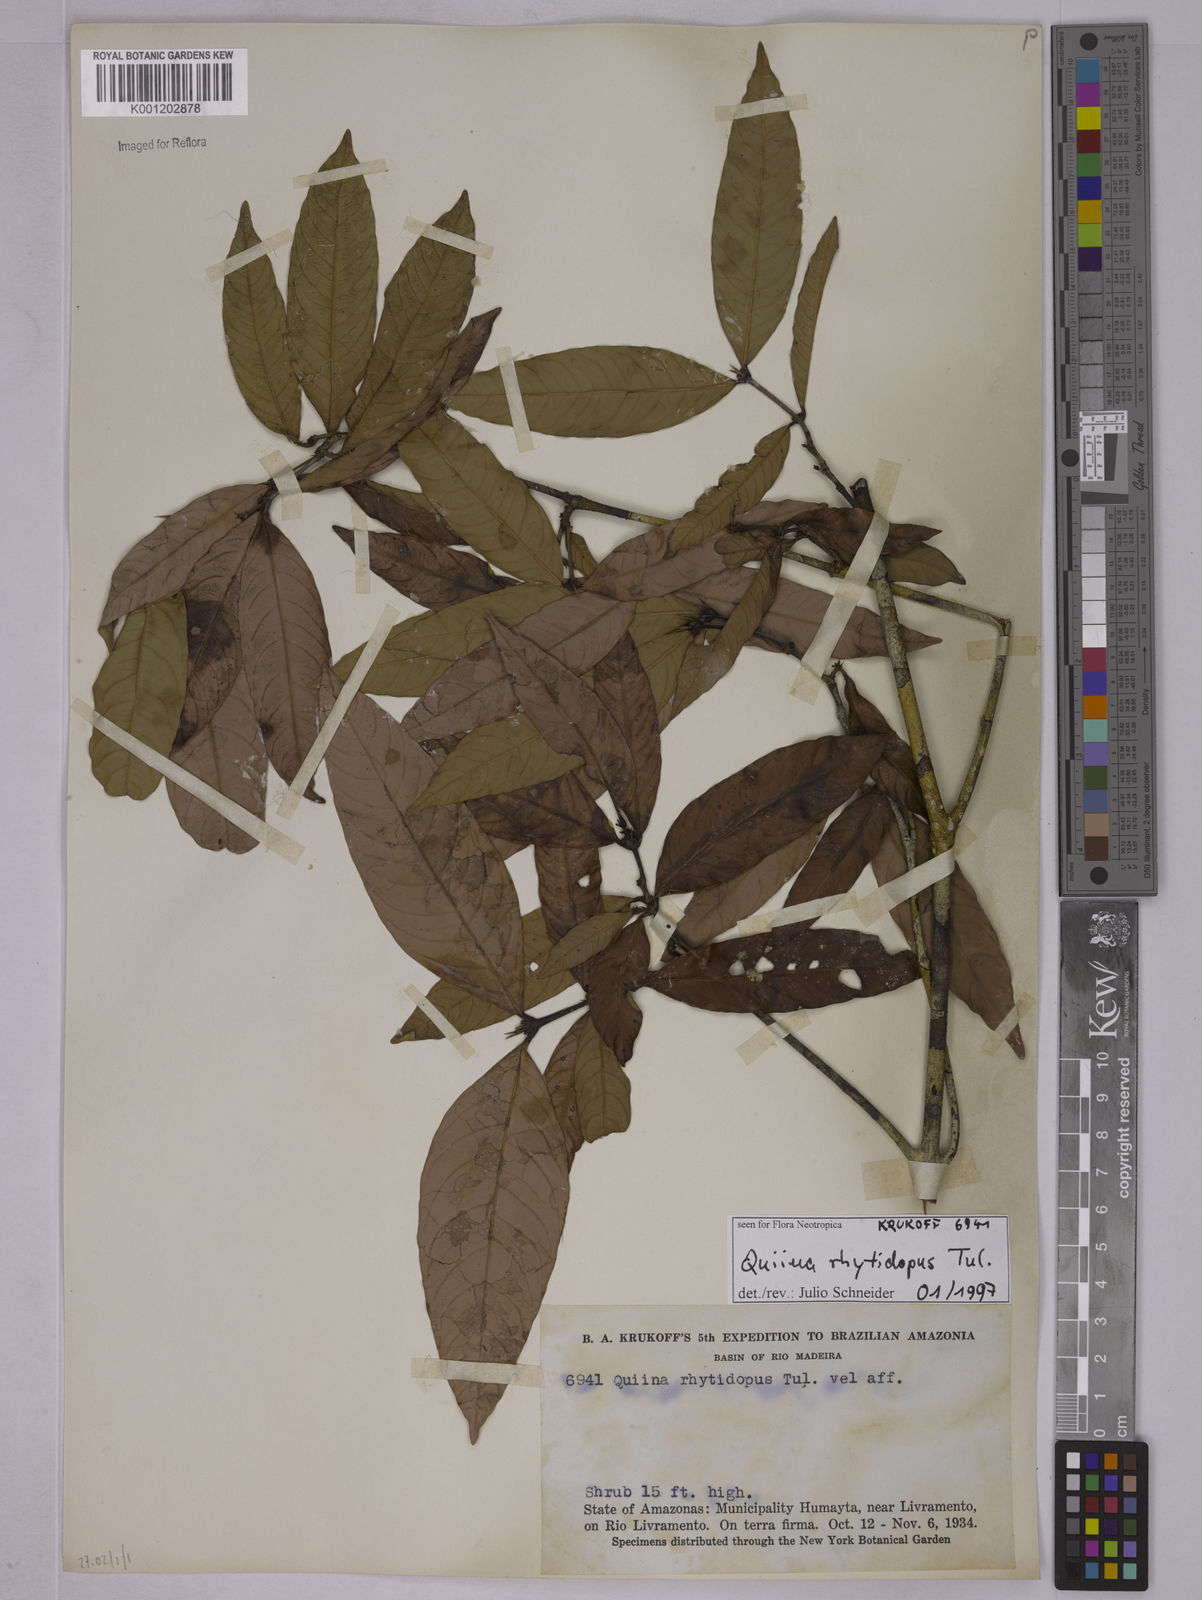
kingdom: Plantae
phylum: Tracheophyta
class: Magnoliopsida
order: Malpighiales
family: Quiinaceae
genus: Quiina
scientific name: Quiina rhytidopus
